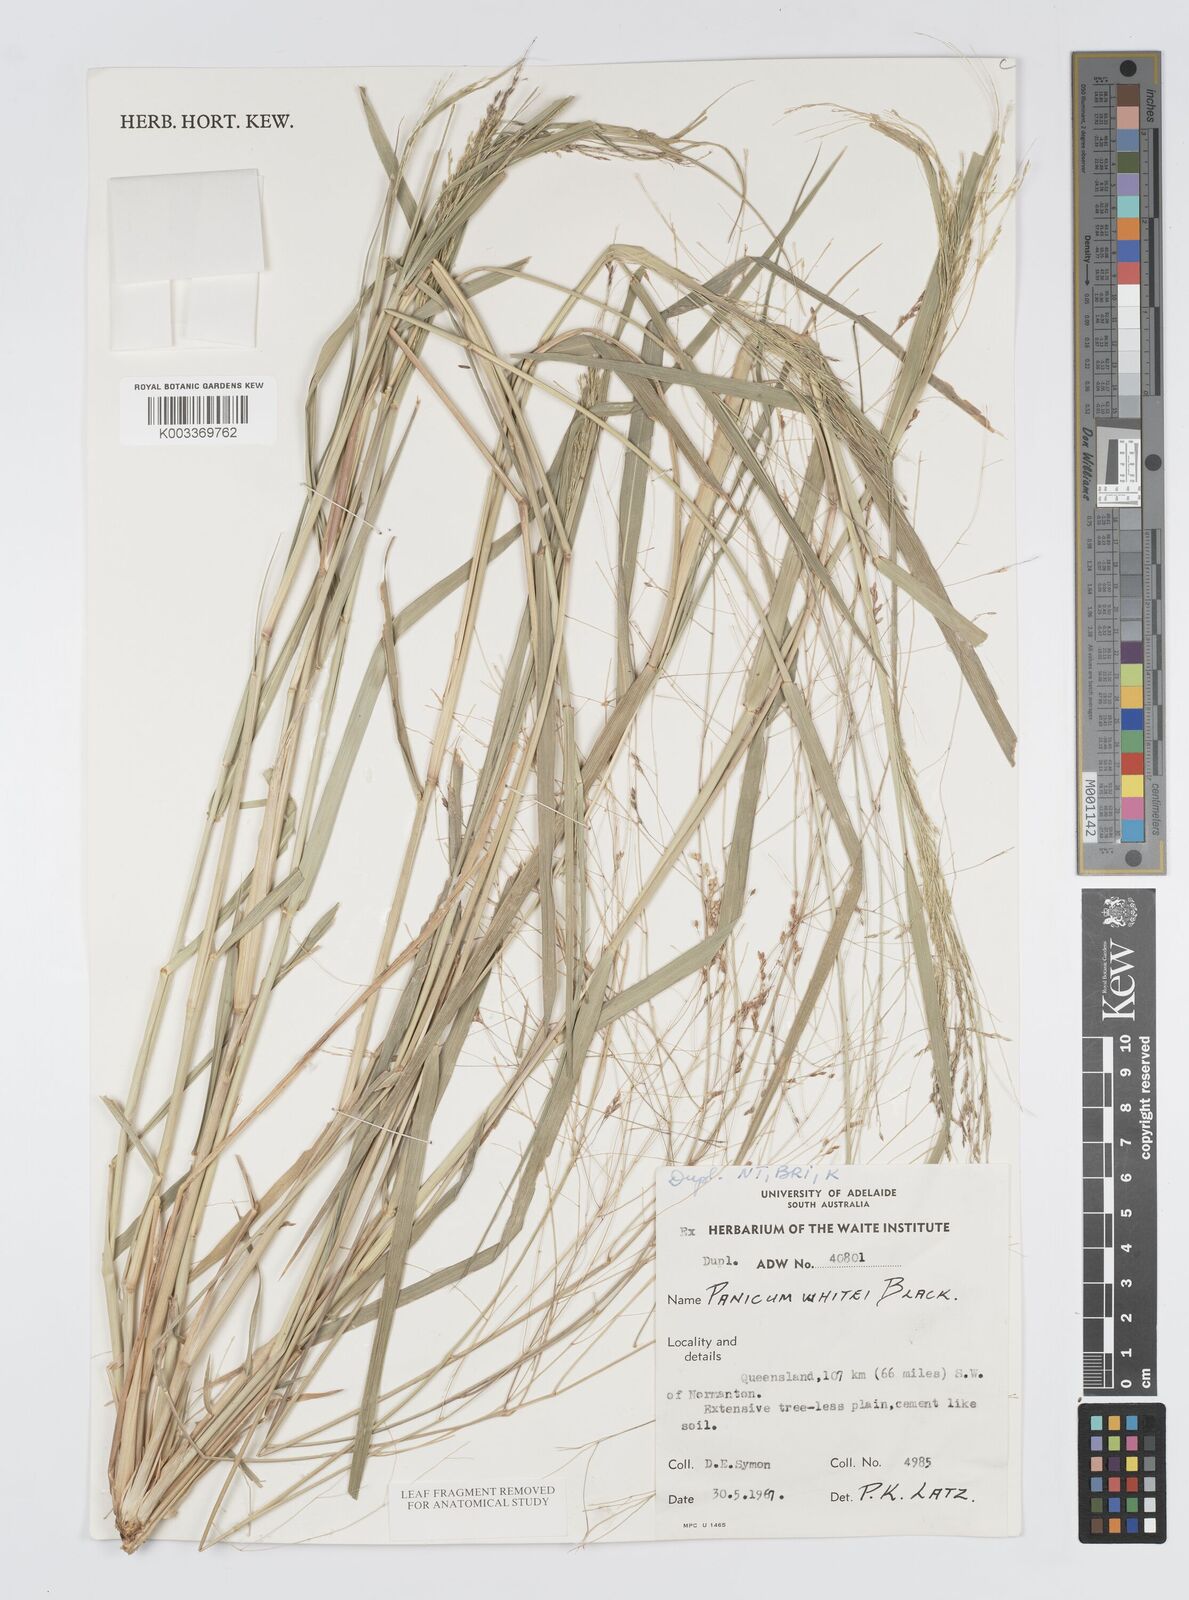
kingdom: Plantae
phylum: Tracheophyta
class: Liliopsida
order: Poales
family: Poaceae
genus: Panicum
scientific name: Panicum laevinode
